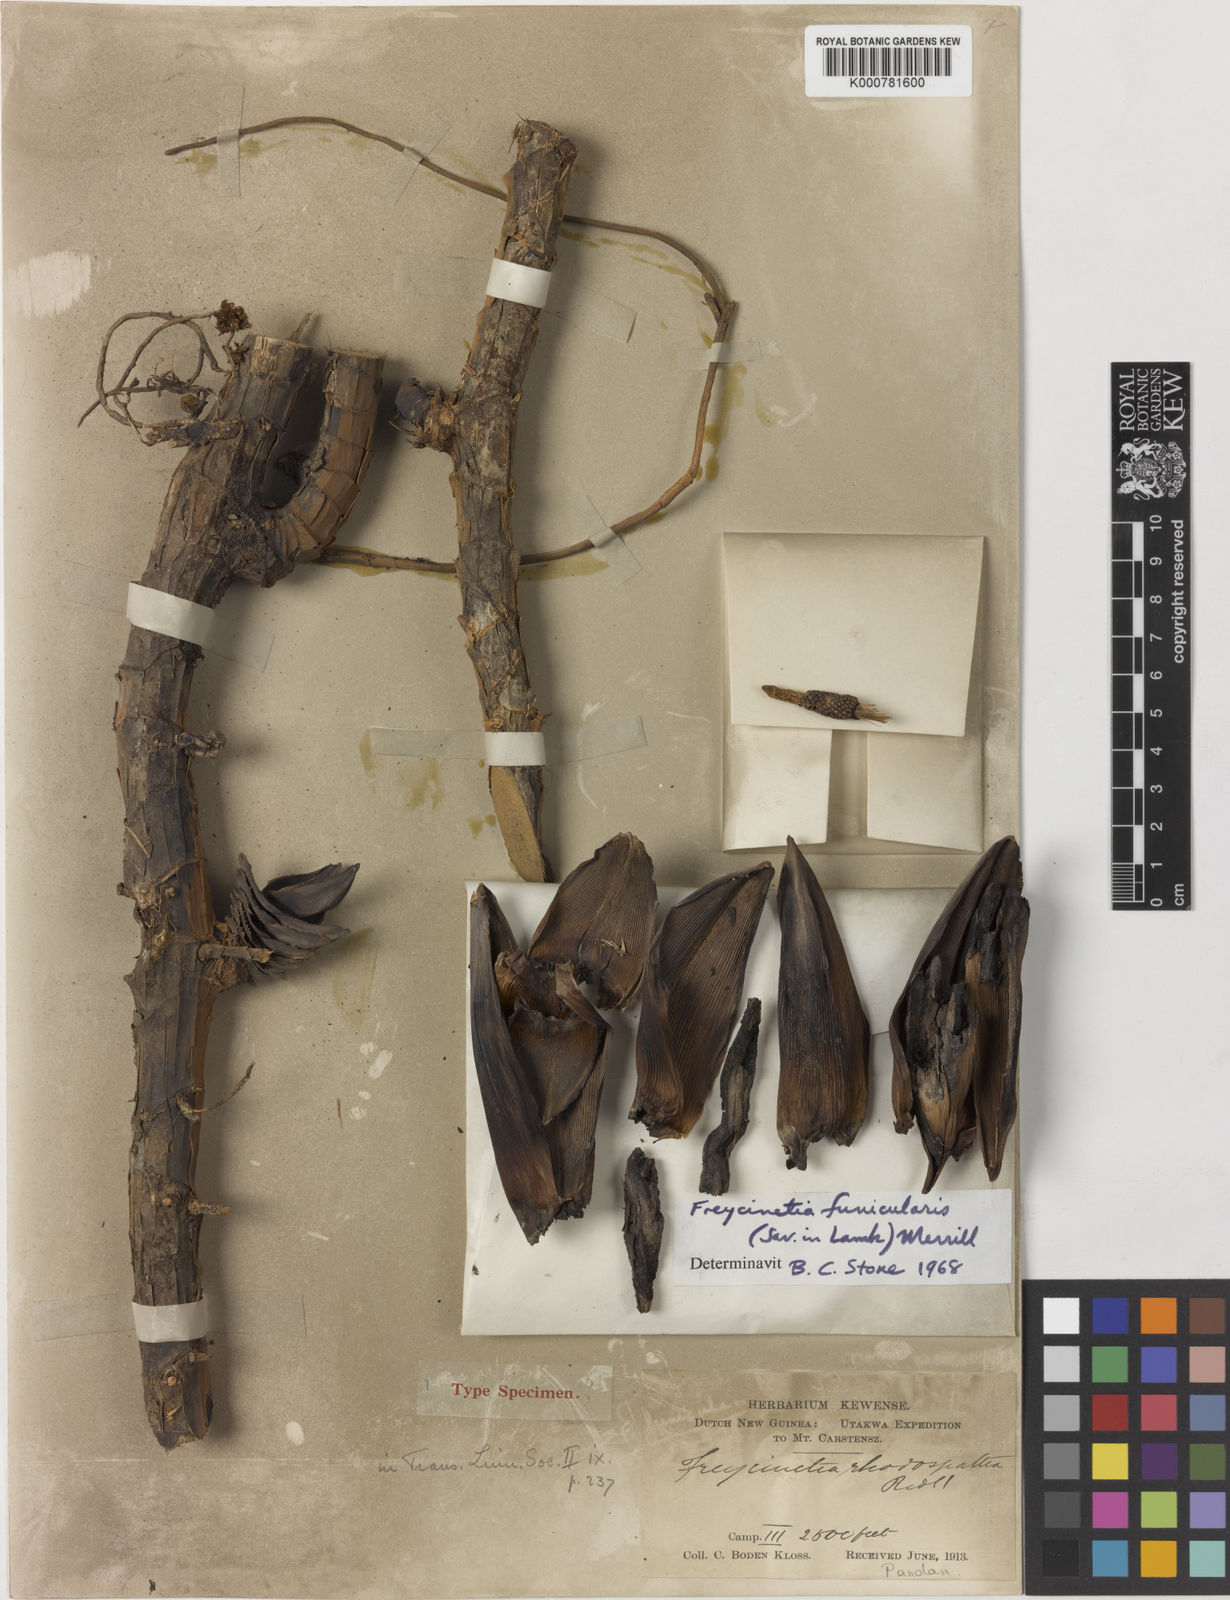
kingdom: Plantae
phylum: Tracheophyta
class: Liliopsida
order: Pandanales
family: Pandanaceae
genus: Freycinetia
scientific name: Freycinetia funicularis
